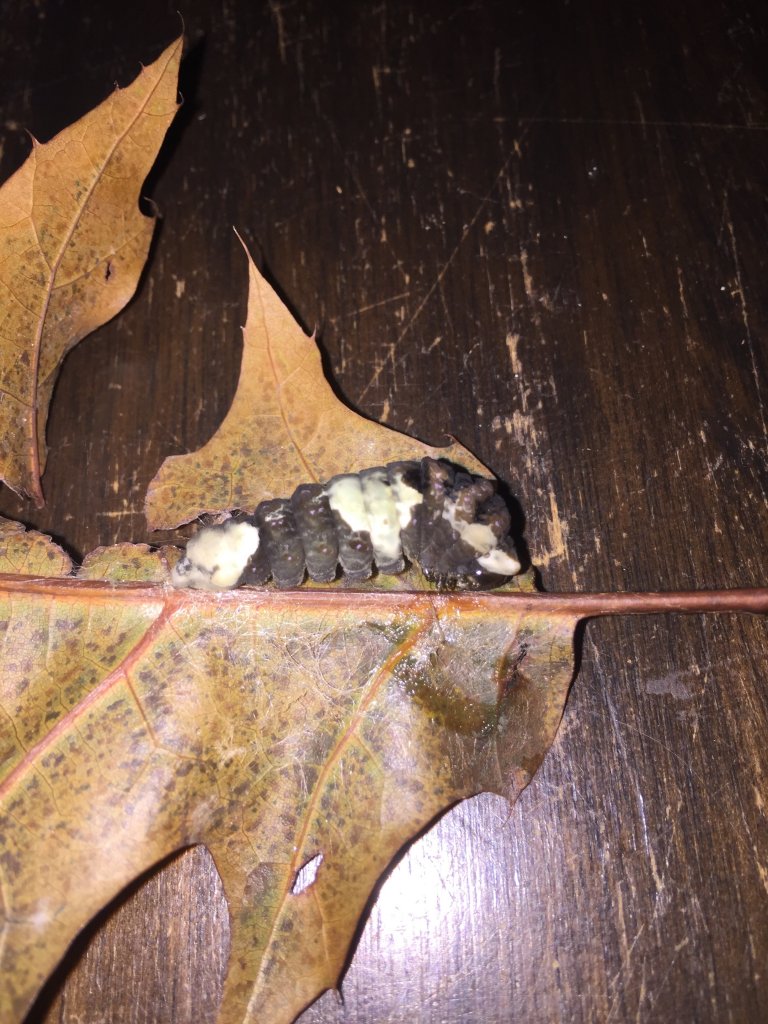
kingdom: Animalia
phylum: Arthropoda
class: Insecta
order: Lepidoptera
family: Papilionidae
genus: Papilio
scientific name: Papilio cresphontes
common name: Eastern Giant Swallowtail
